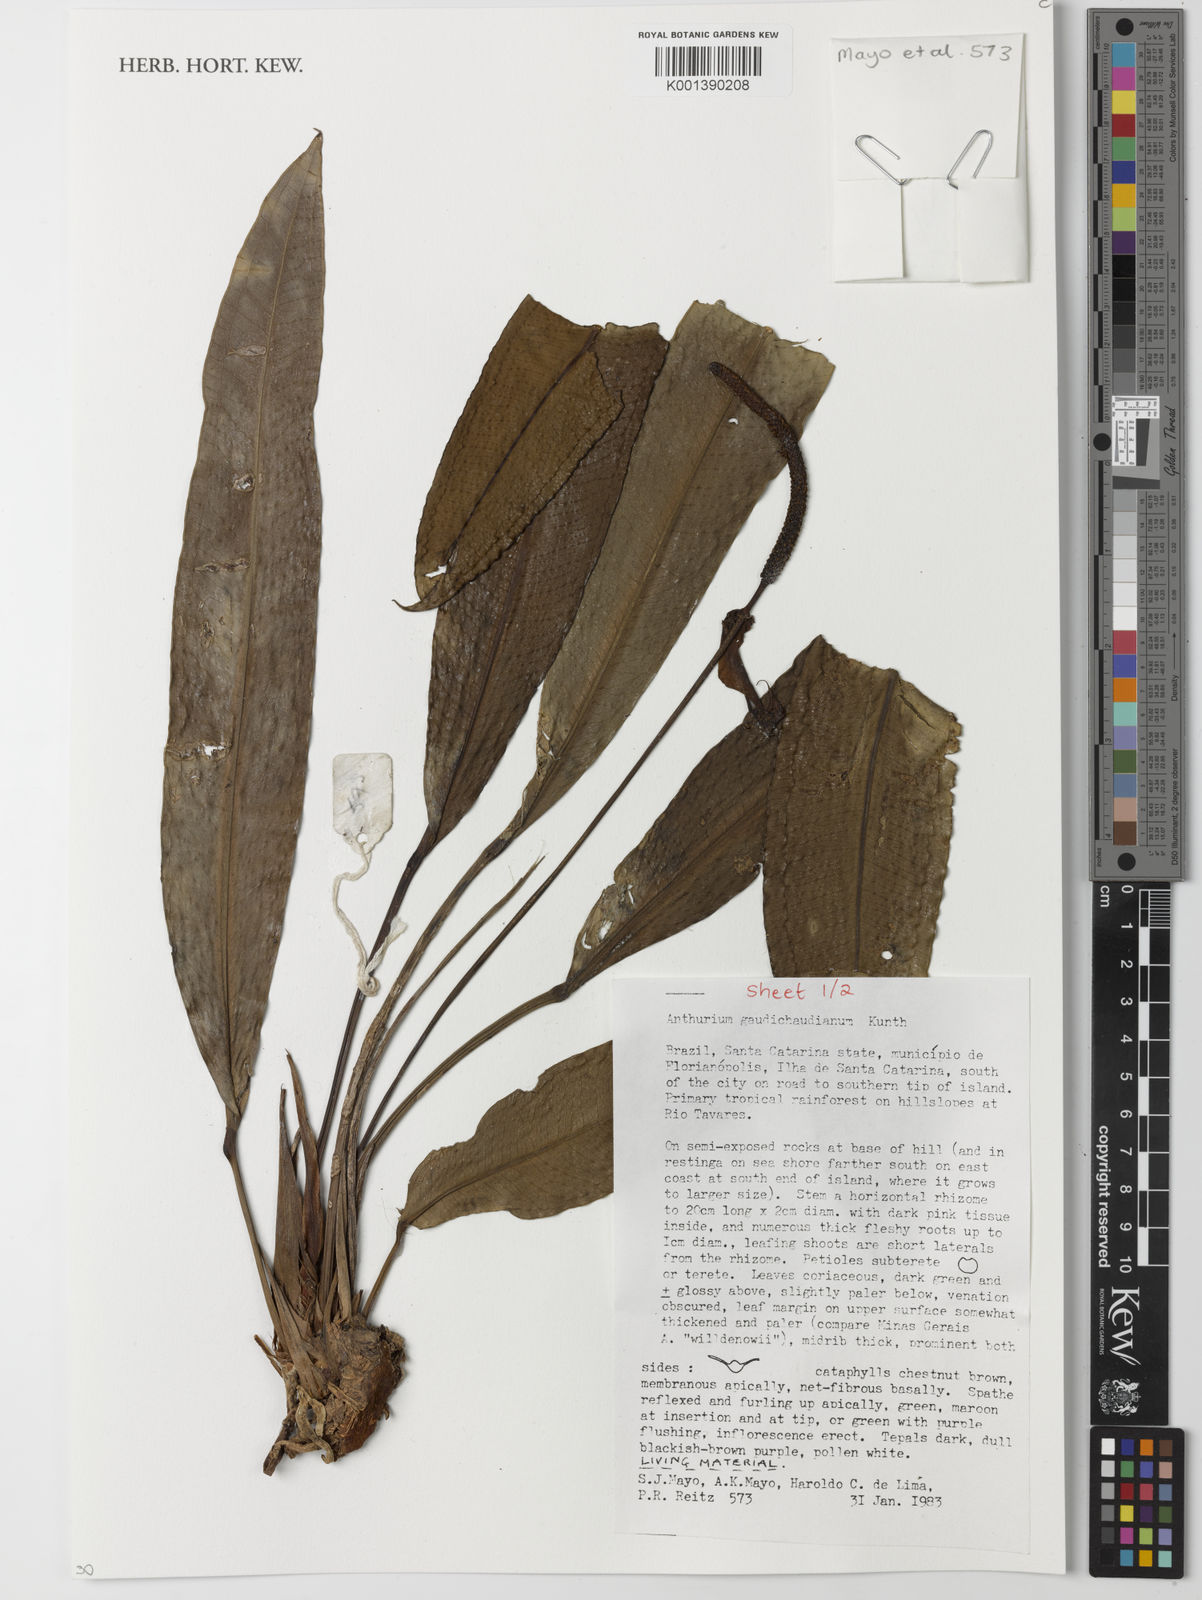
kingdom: Plantae
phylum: Tracheophyta
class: Liliopsida
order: Alismatales
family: Araceae
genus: Anthurium
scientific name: Anthurium gaudichaudianum
